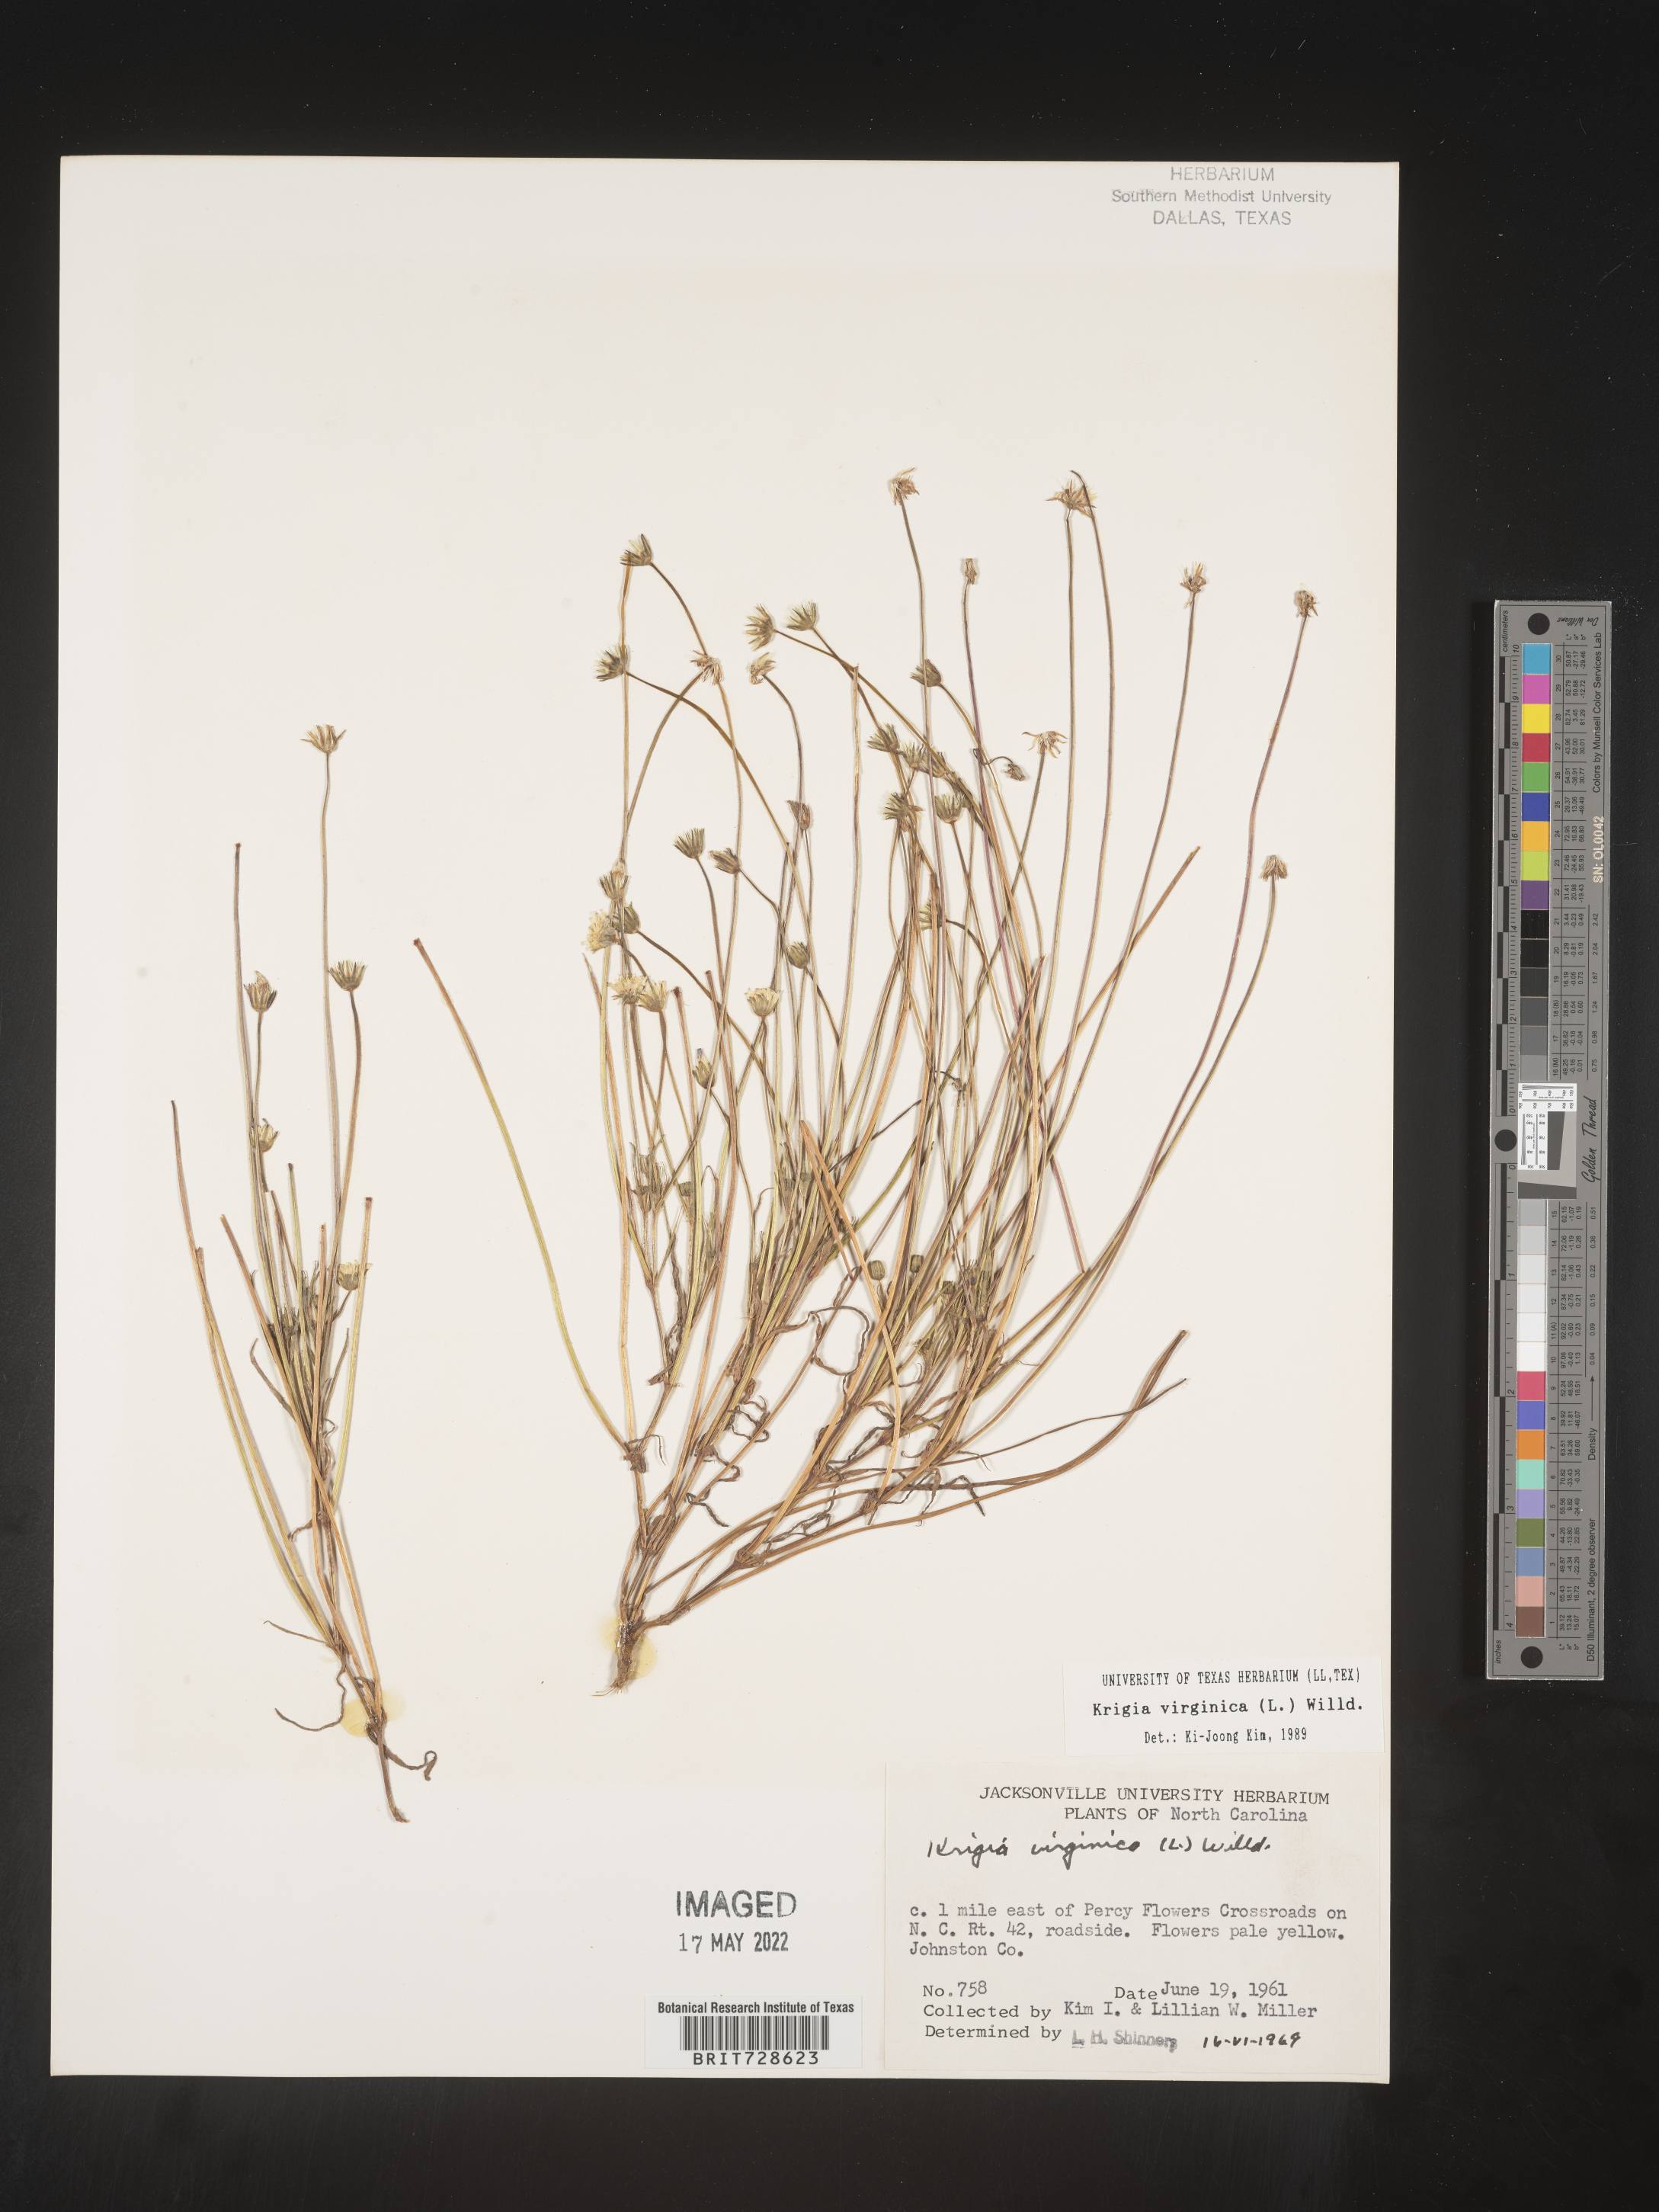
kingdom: Plantae
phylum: Tracheophyta
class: Magnoliopsida
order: Asterales
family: Asteraceae
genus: Krigia
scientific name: Krigia virginica
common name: Virginia dwarf-dandelion
